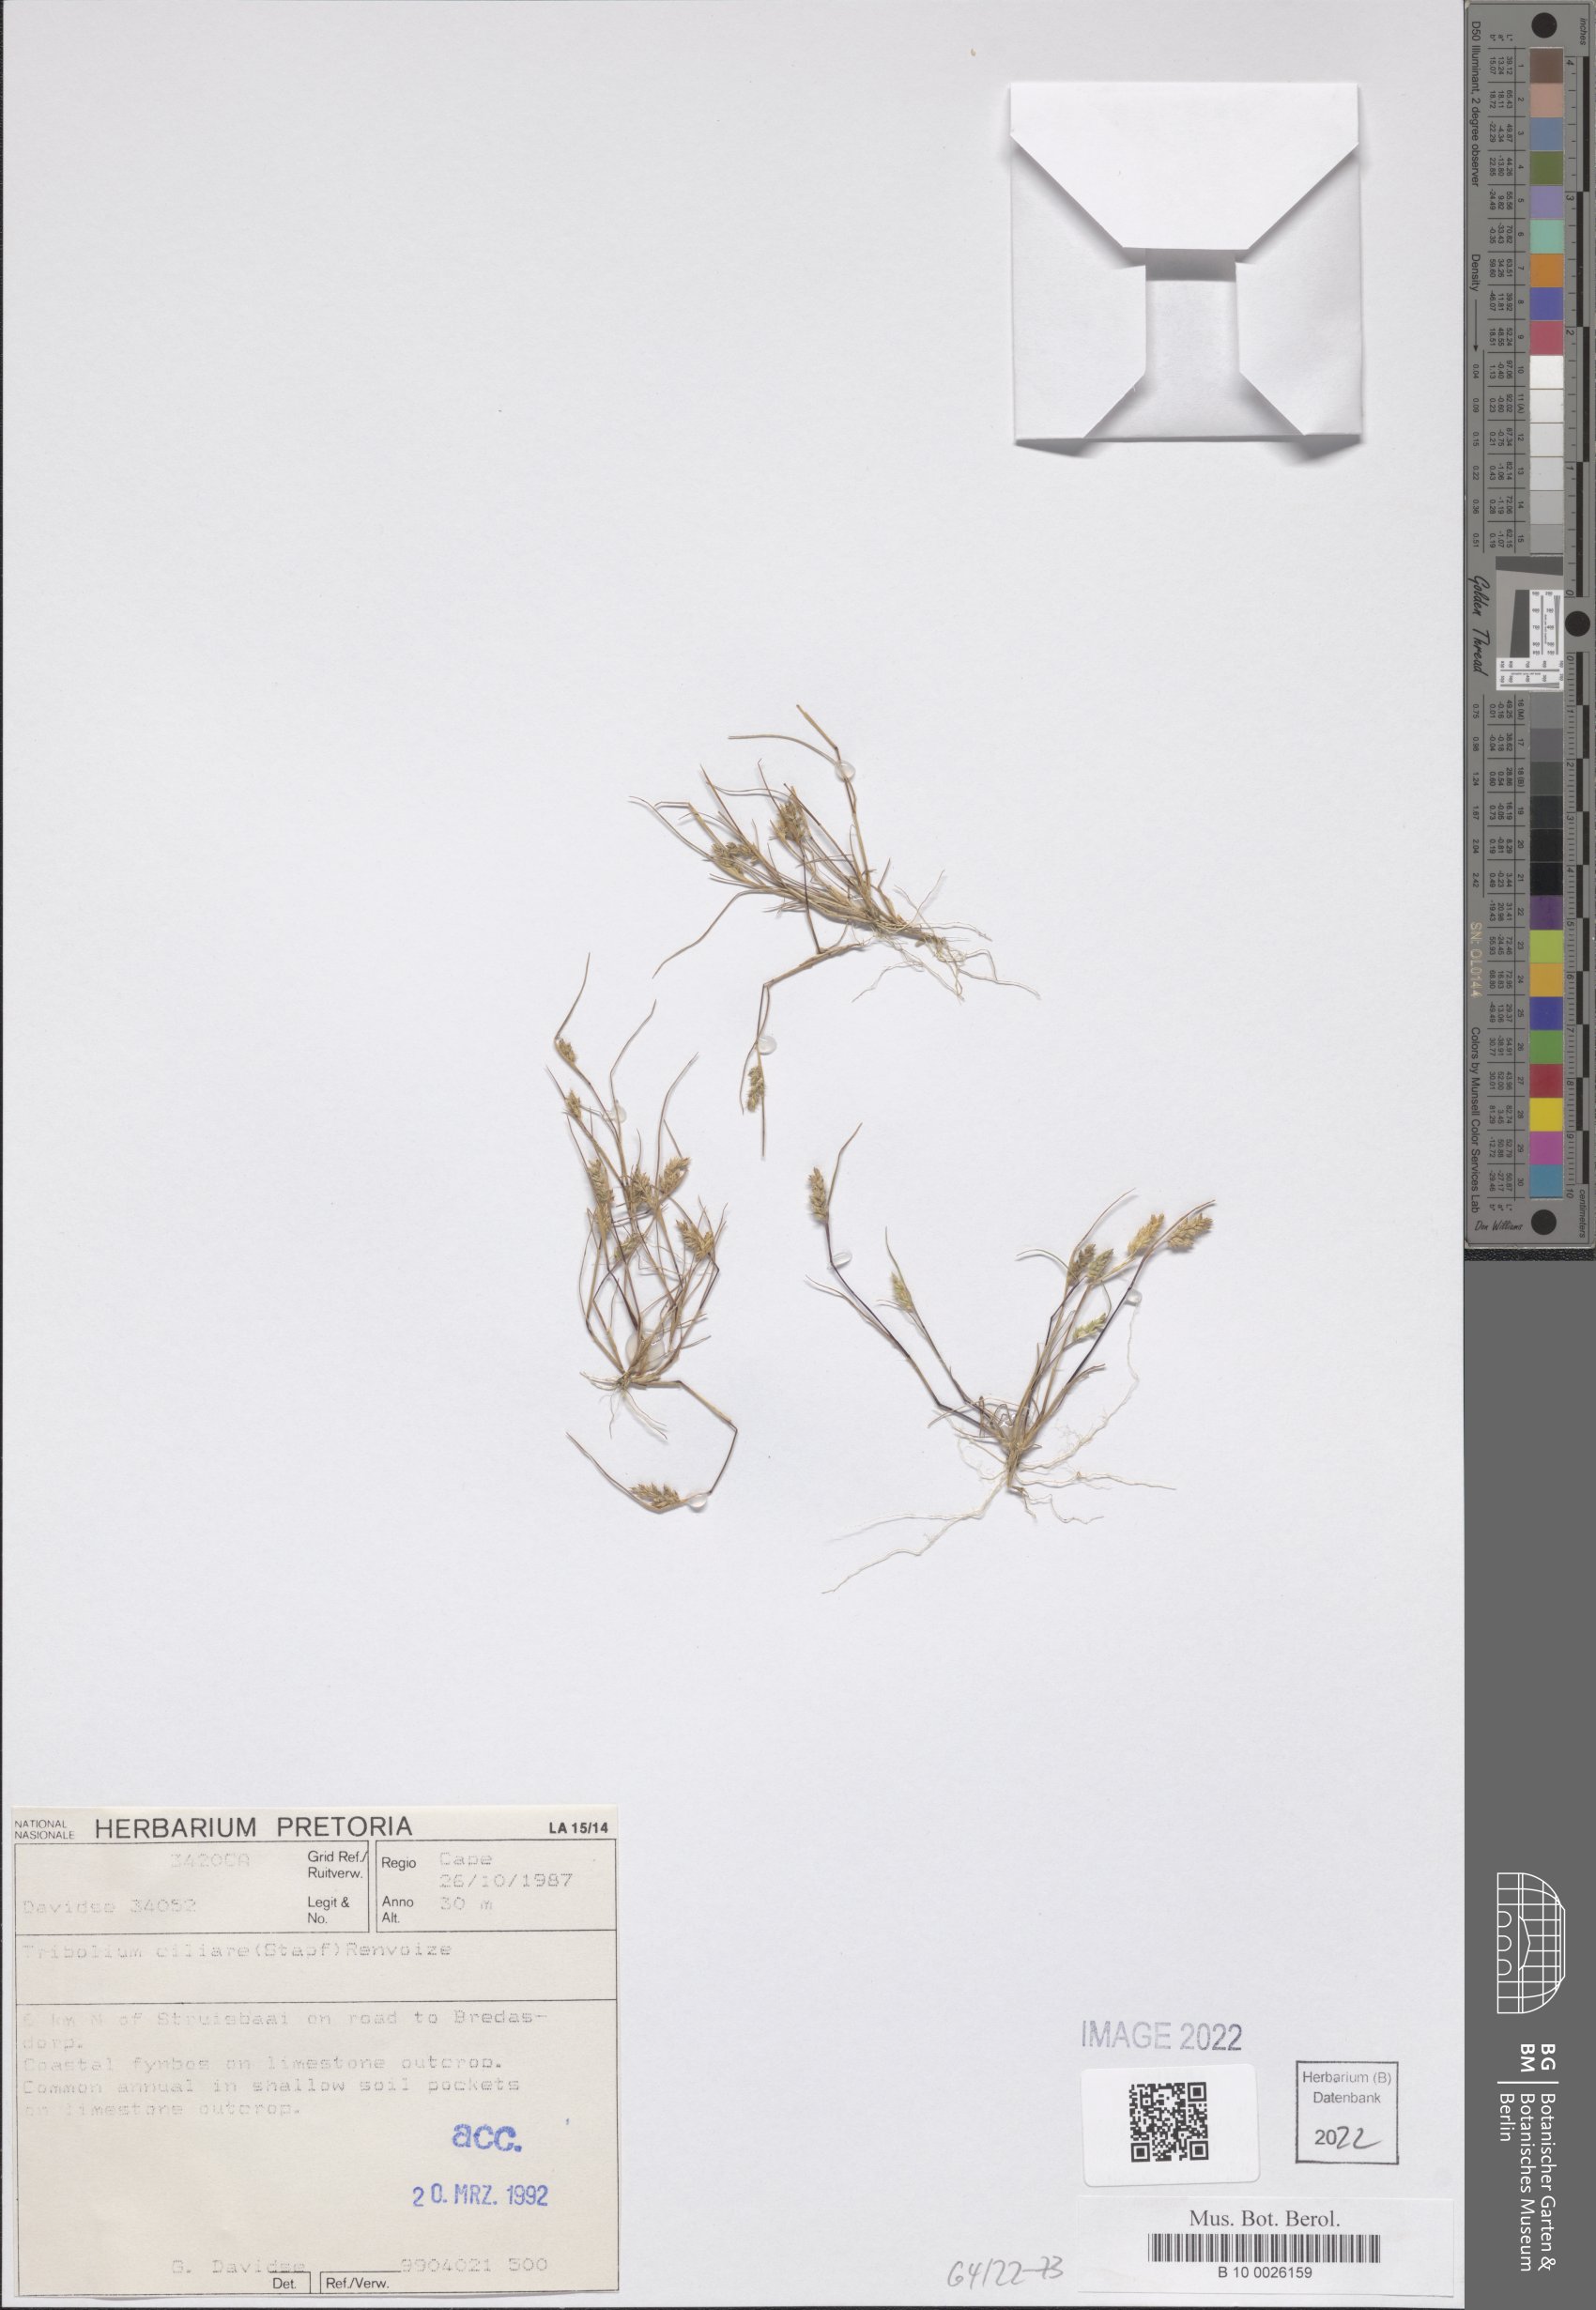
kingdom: Plantae
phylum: Tracheophyta
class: Liliopsida
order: Poales
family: Poaceae
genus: Tribolium
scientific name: Tribolium ciliare
